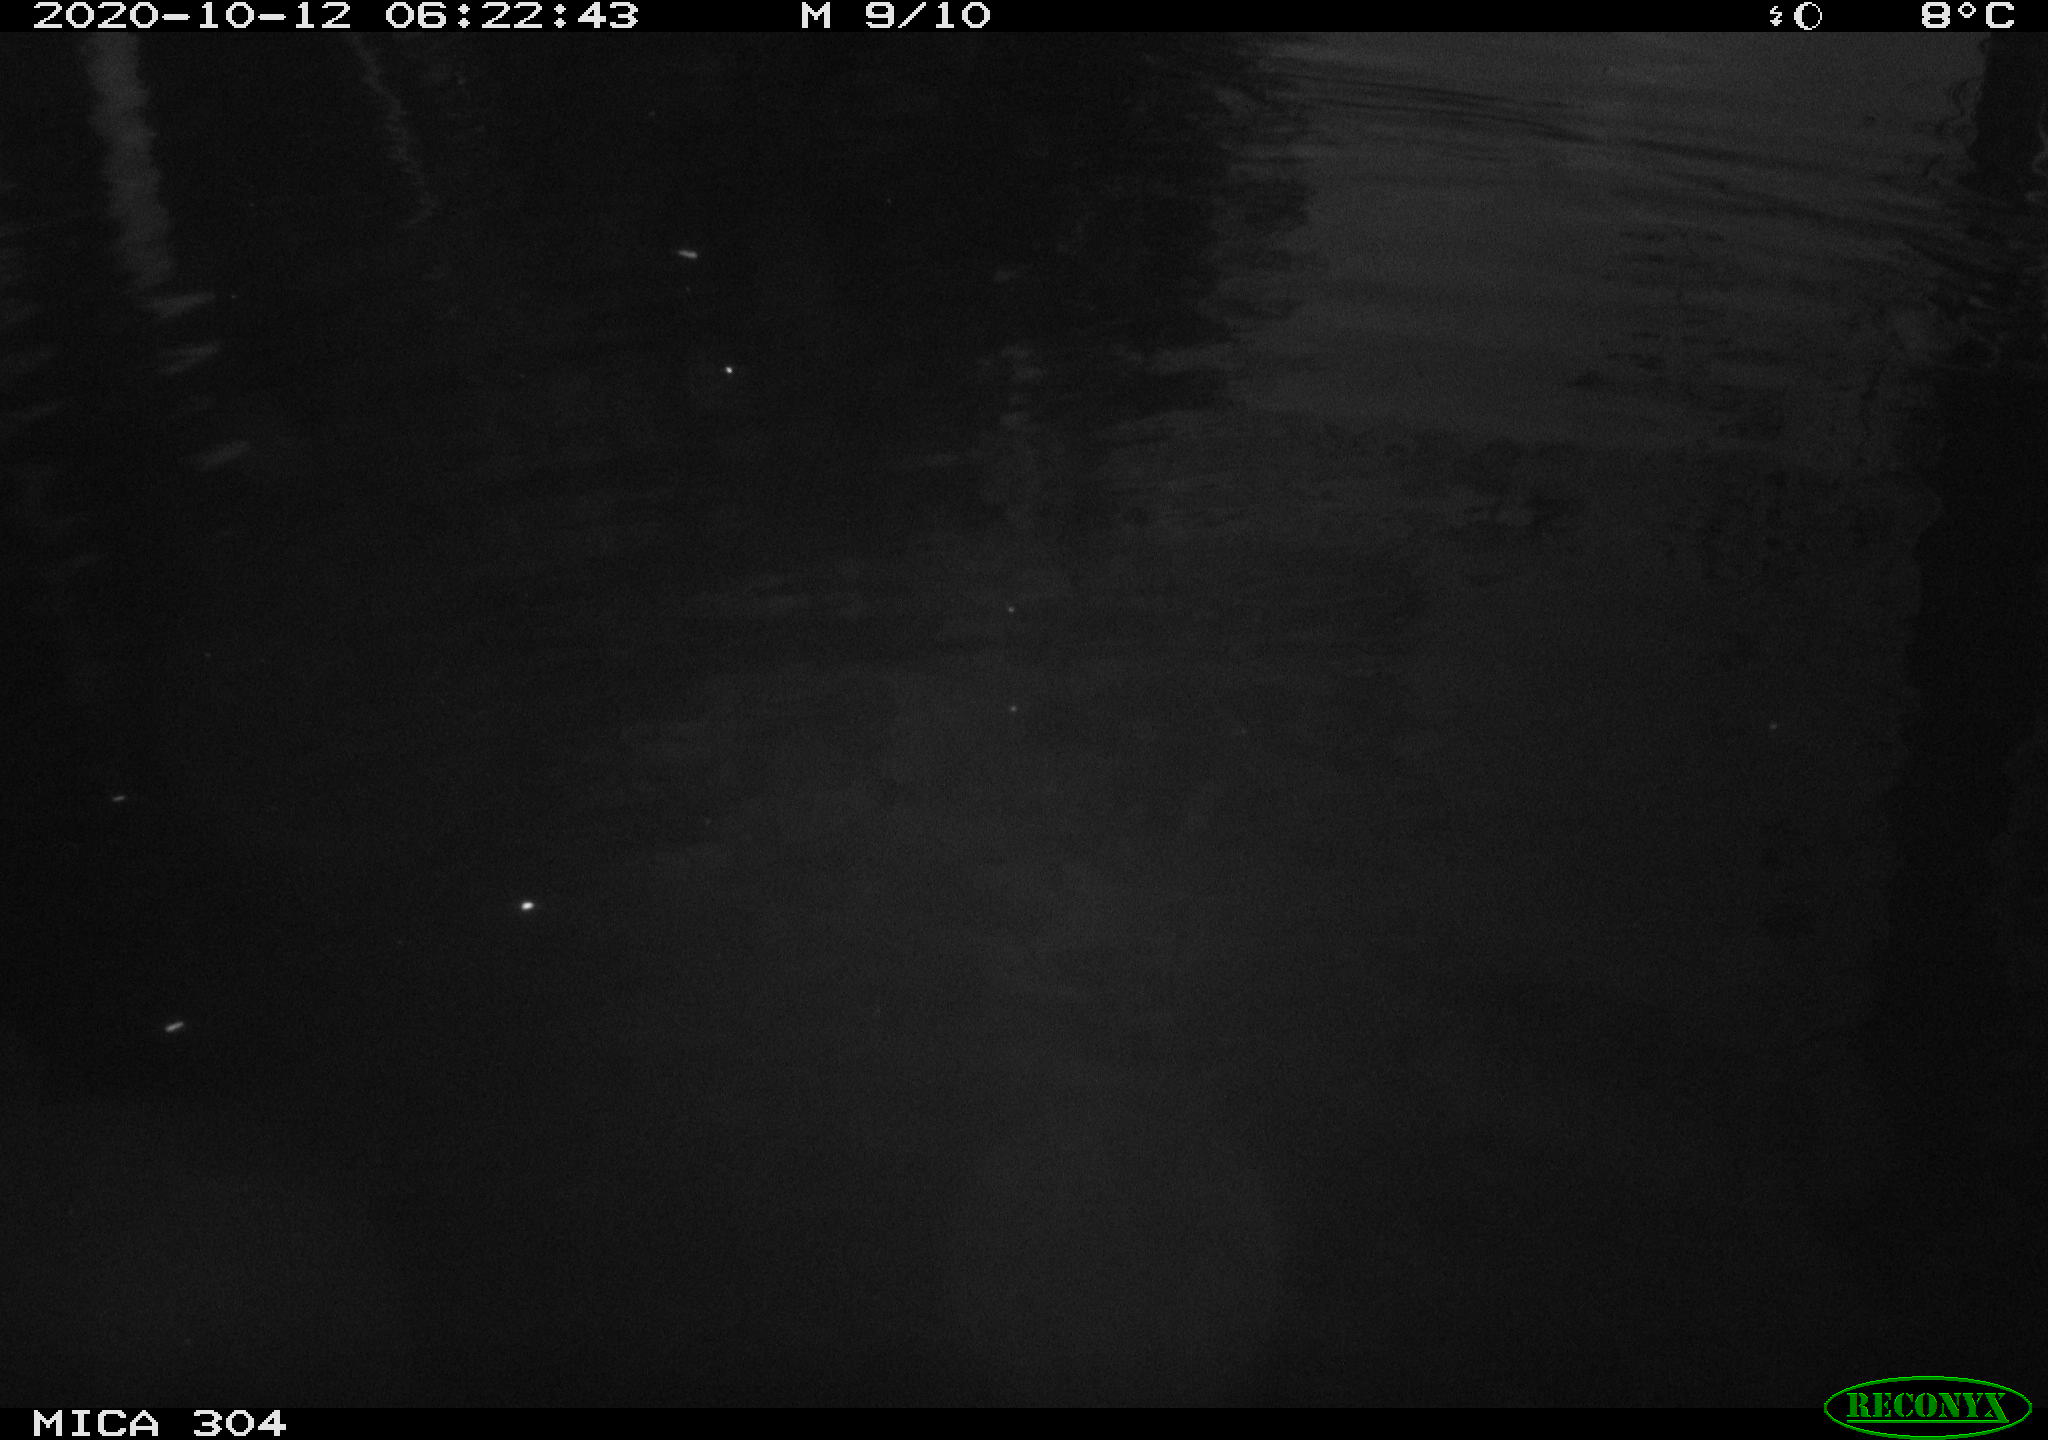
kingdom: Animalia
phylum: Chordata
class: Mammalia
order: Rodentia
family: Muridae
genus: Rattus
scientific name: Rattus norvegicus
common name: Brown rat
